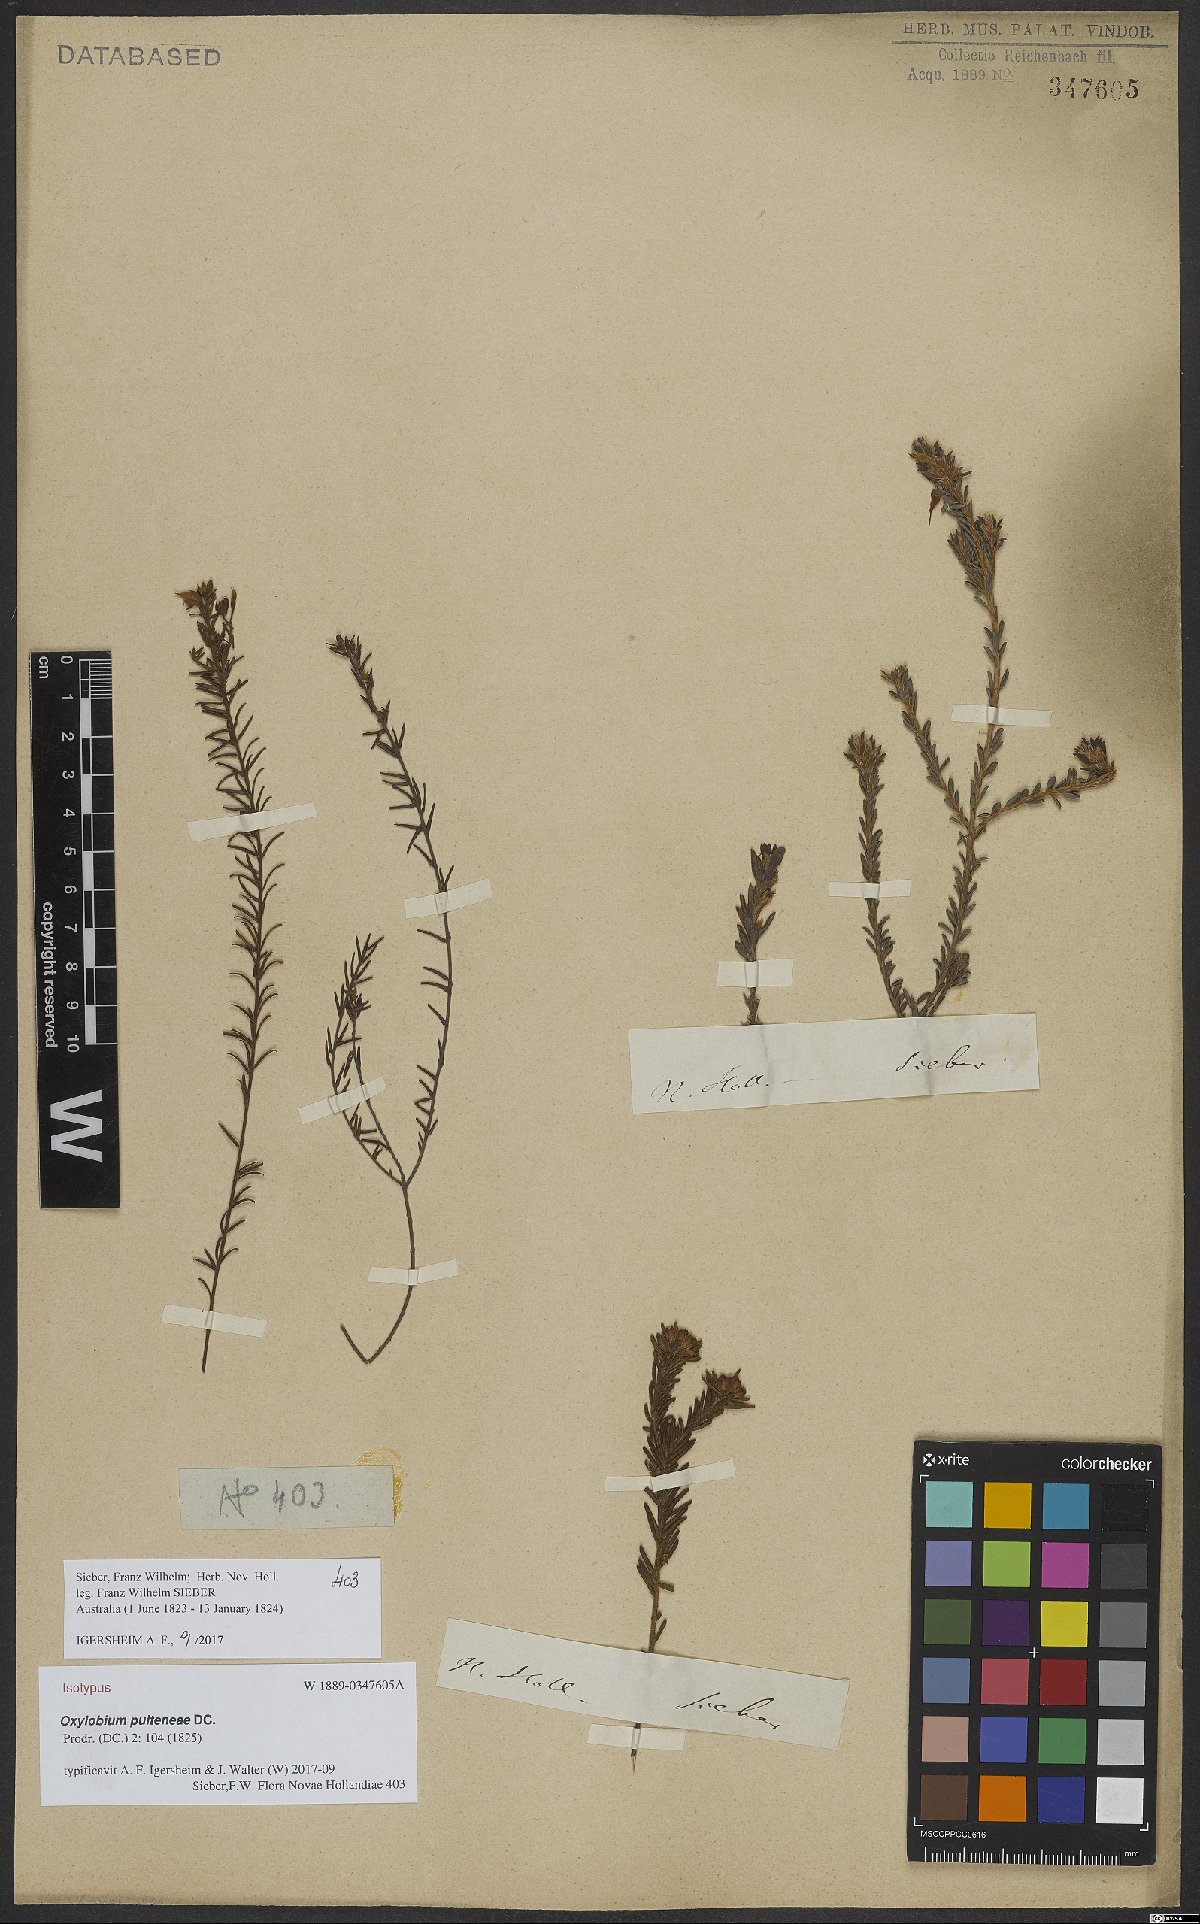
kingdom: Plantae
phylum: Tracheophyta
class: Magnoliopsida
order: Fabales
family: Fabaceae
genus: Oxylobium
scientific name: Oxylobium pulteneae
